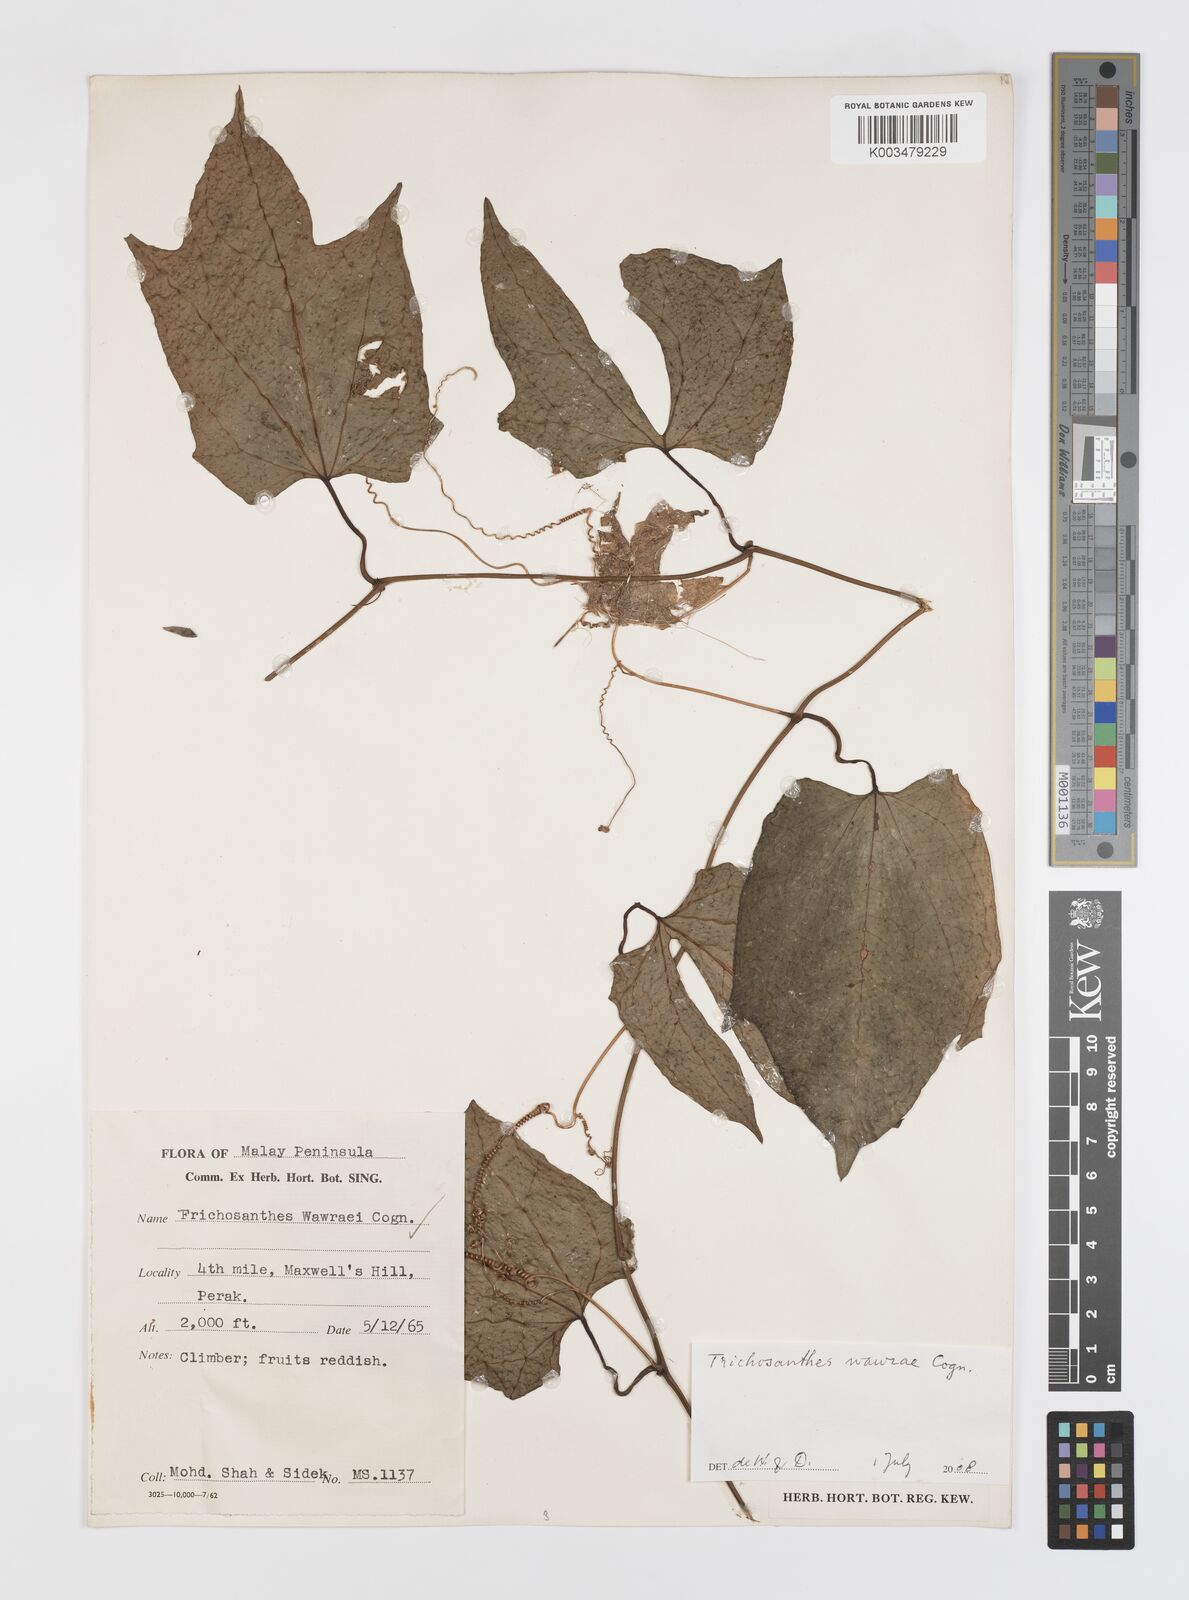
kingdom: Plantae
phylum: Tracheophyta
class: Magnoliopsida
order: Cucurbitales
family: Cucurbitaceae
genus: Trichosanthes
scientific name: Trichosanthes wawrae
